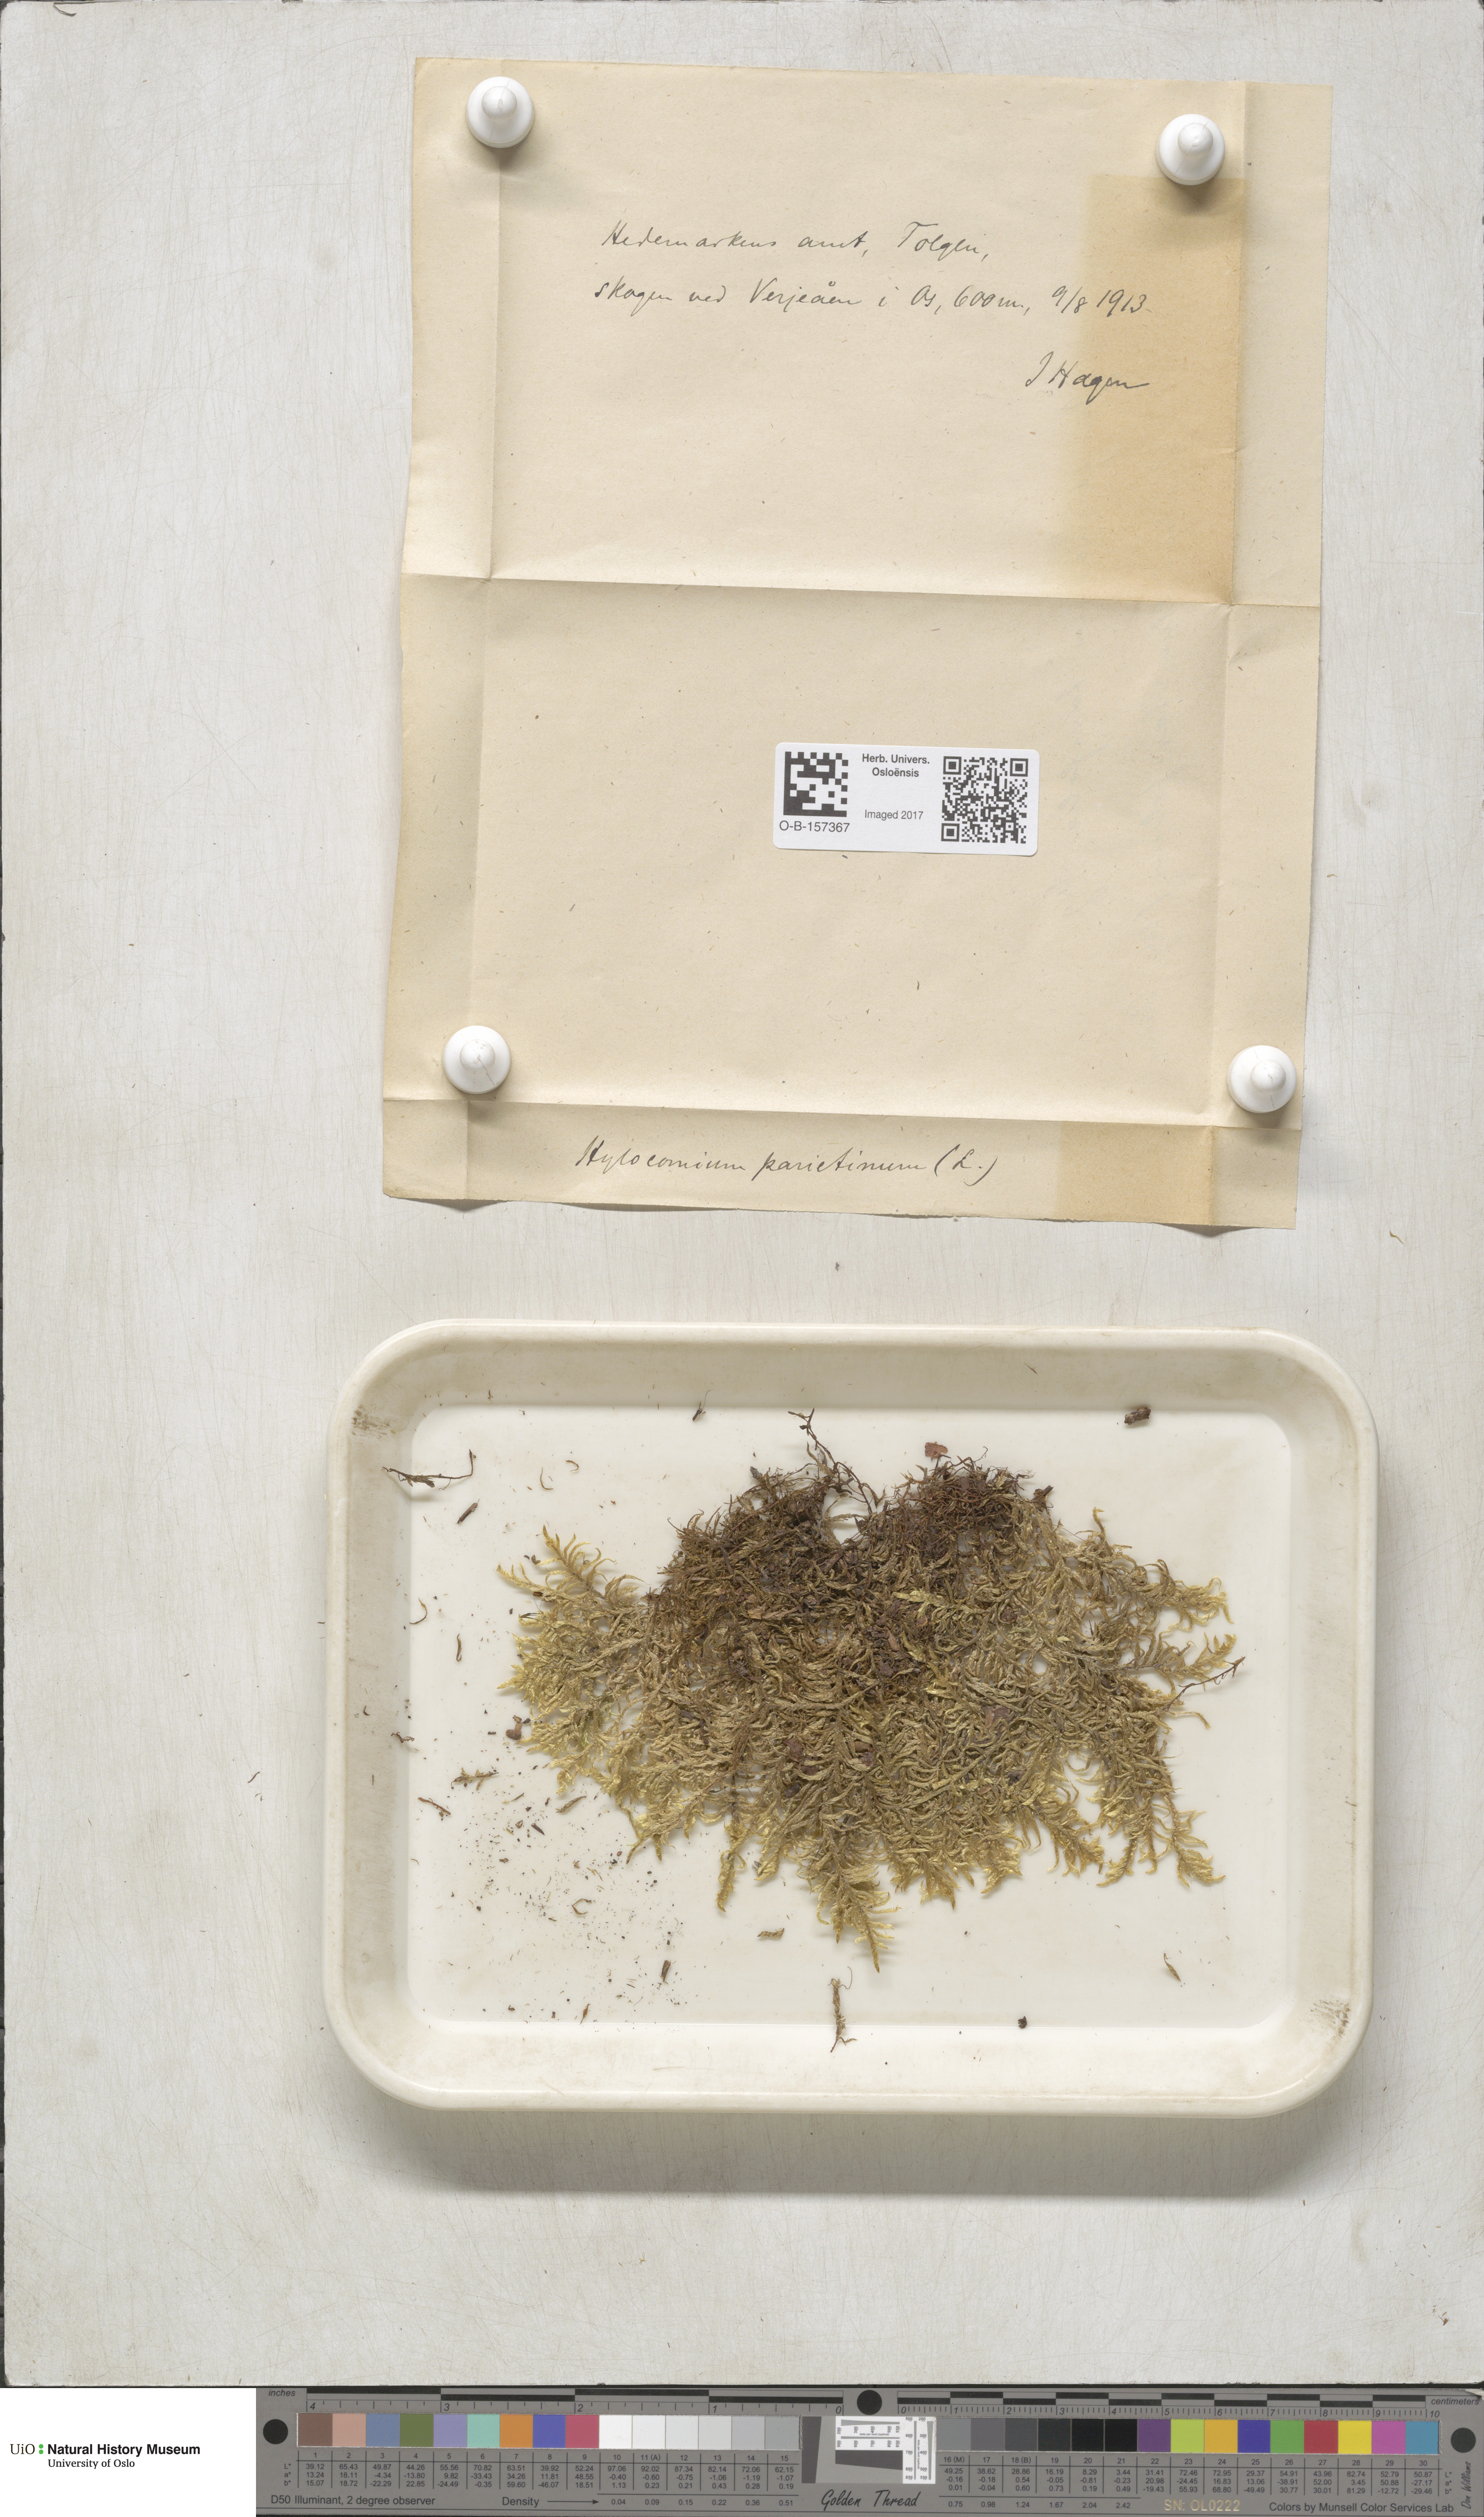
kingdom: Plantae
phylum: Bryophyta
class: Bryopsida
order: Hypnales
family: Hylocomiaceae
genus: Pleurozium
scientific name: Pleurozium schreberi
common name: Red-stemmed feather moss
